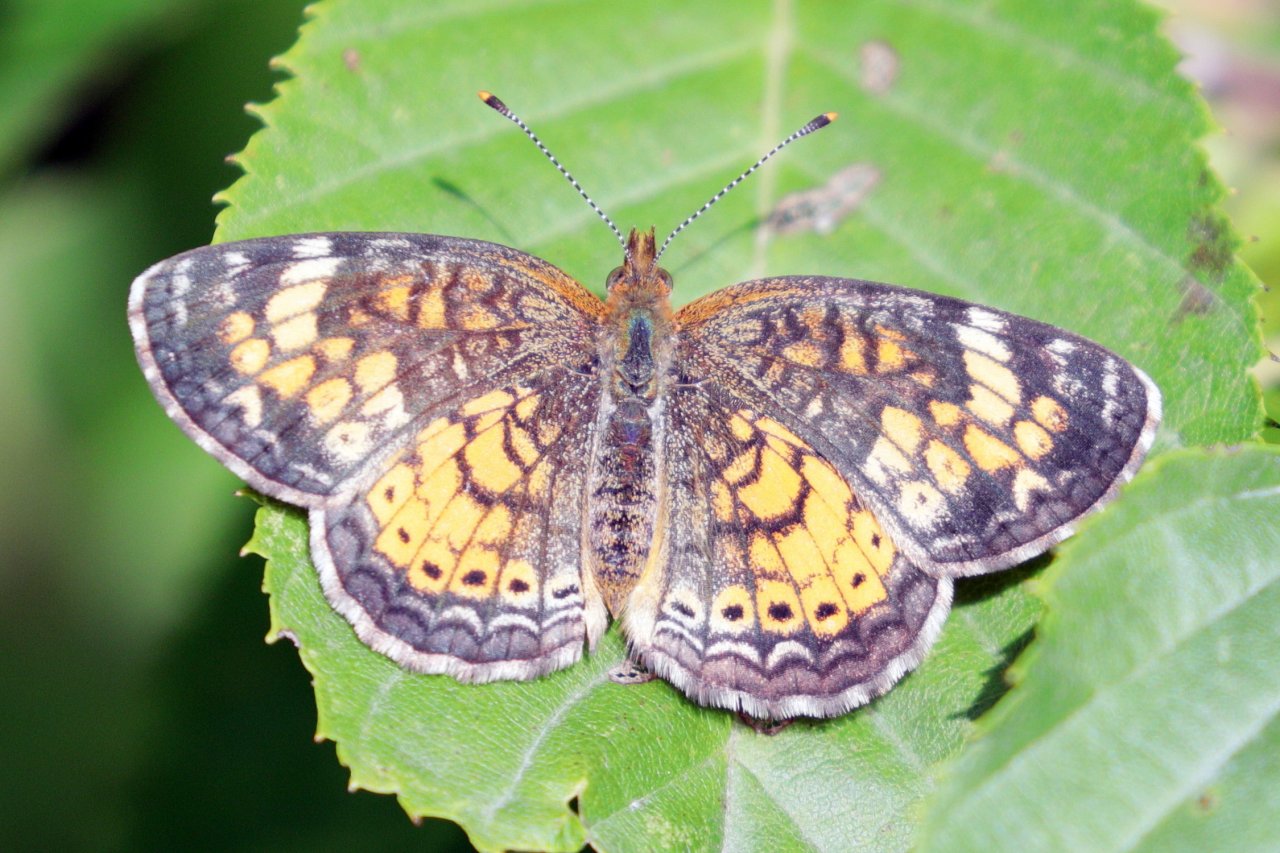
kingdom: Animalia
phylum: Arthropoda
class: Insecta
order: Lepidoptera
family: Nymphalidae
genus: Phyciodes
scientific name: Phyciodes tharos
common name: Pearl Crescent
